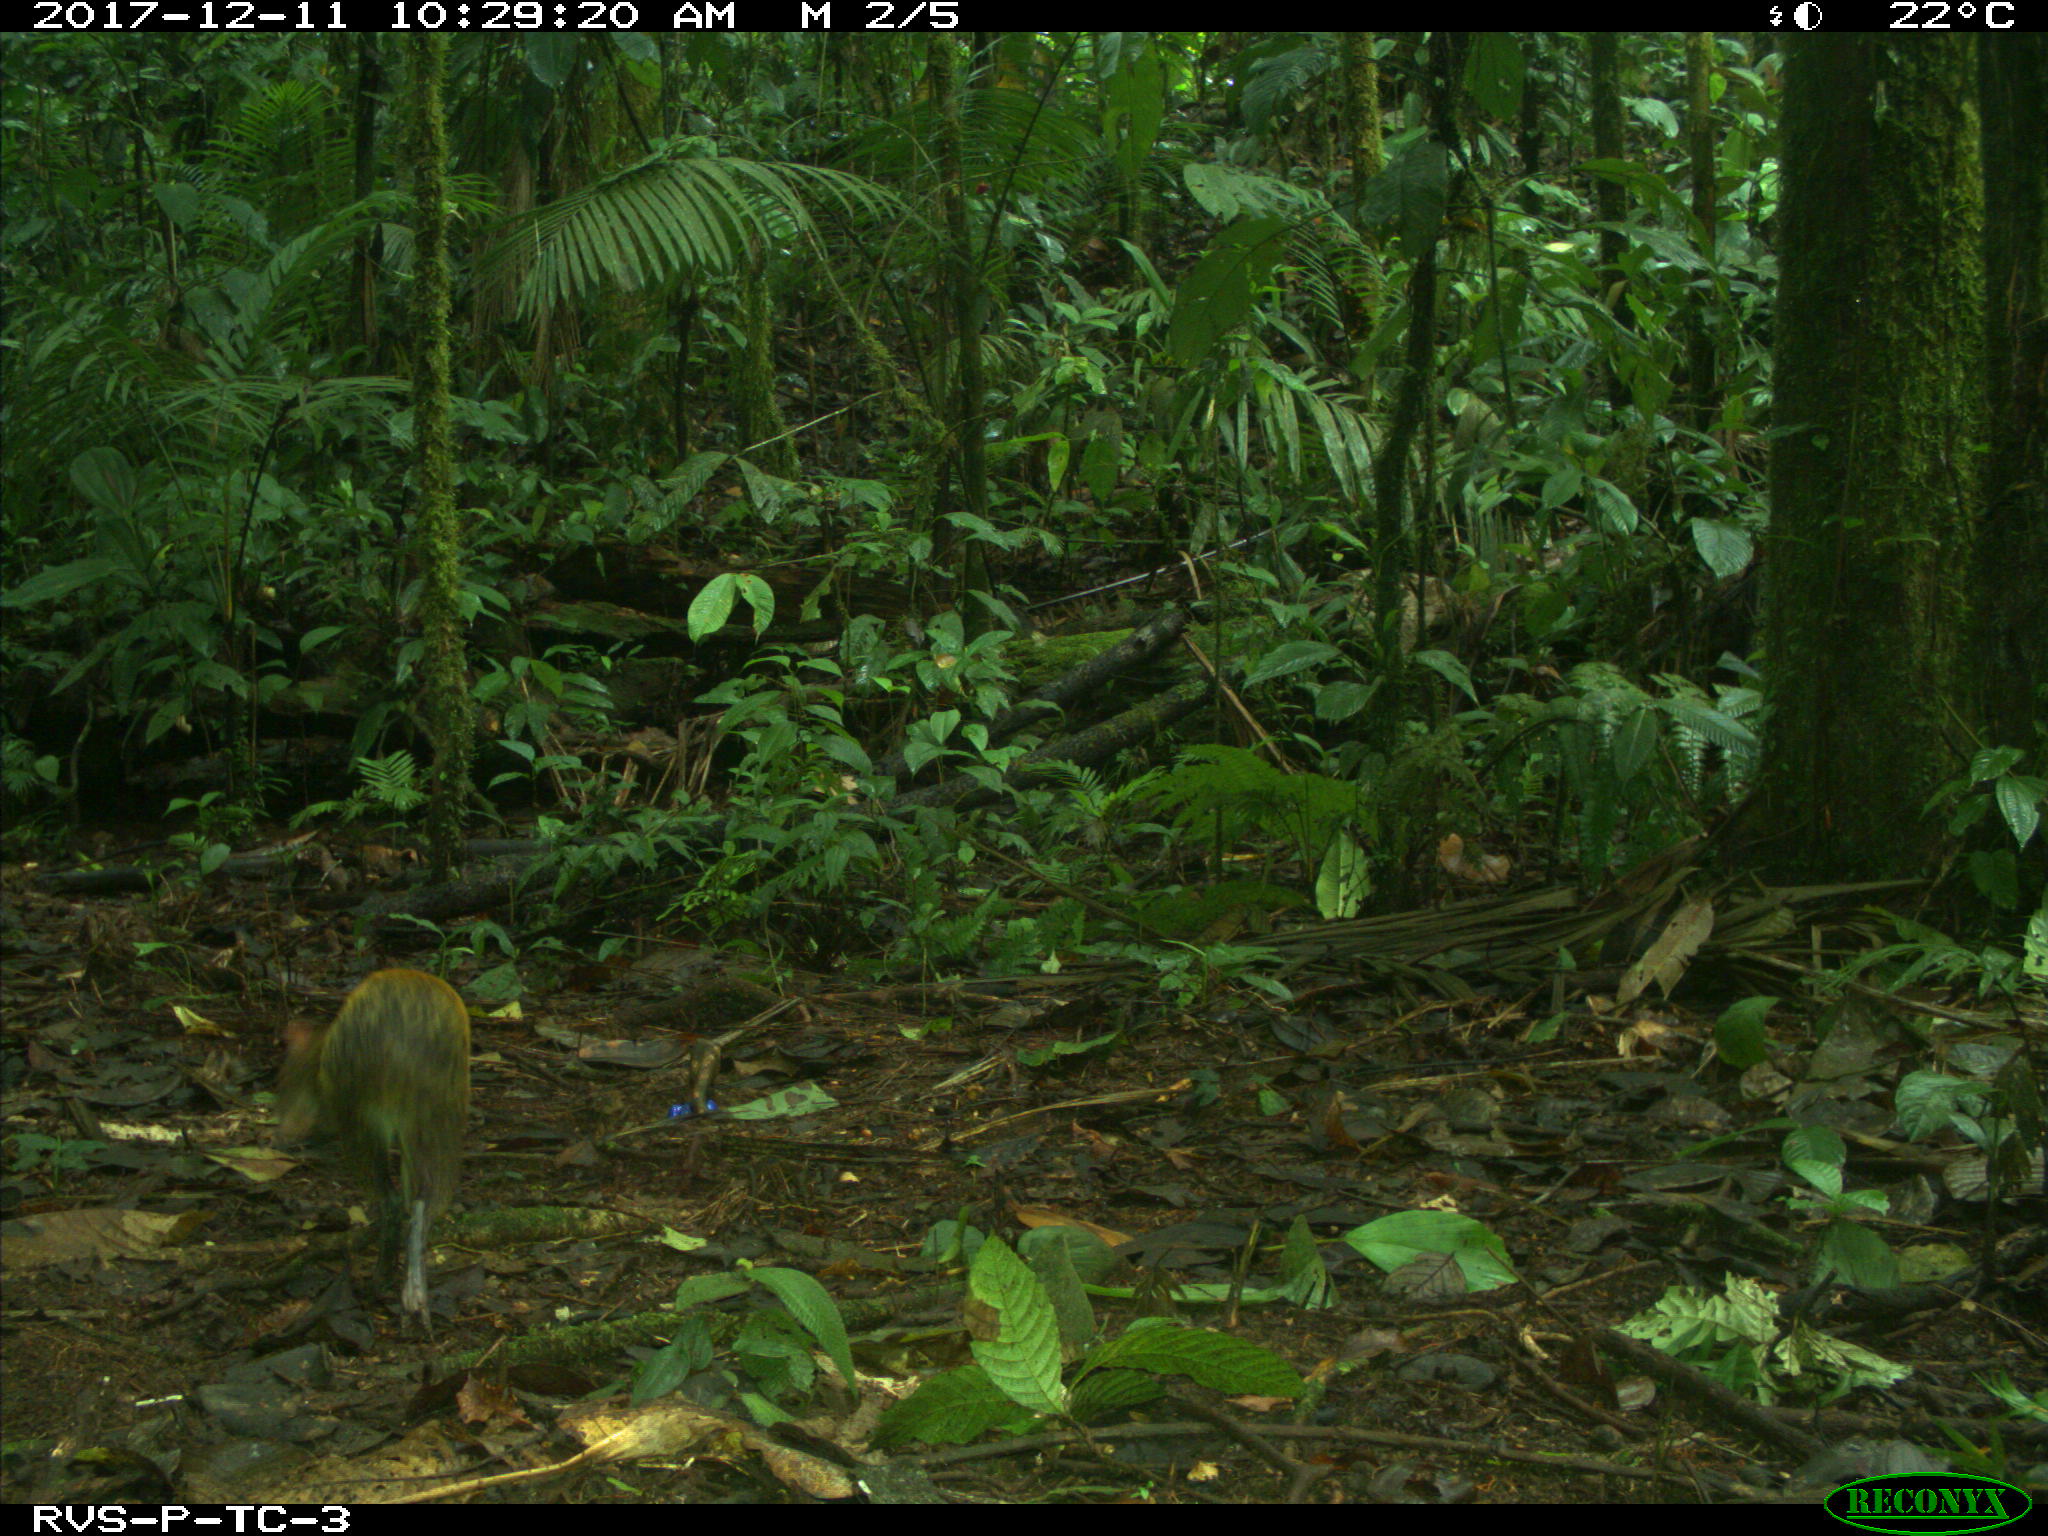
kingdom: Animalia
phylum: Chordata
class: Mammalia
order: Rodentia
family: Dasyproctidae
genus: Dasyprocta
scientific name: Dasyprocta punctata
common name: Central american agouti
